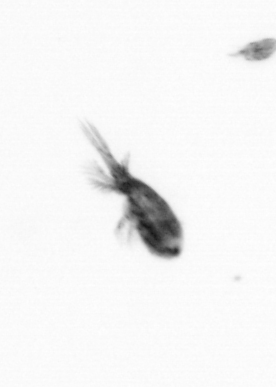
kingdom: Animalia
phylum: Arthropoda
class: Maxillopoda
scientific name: Maxillopoda
